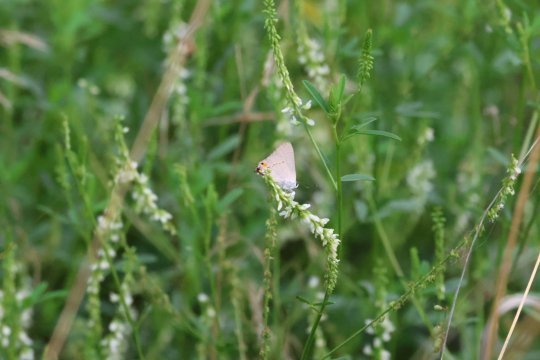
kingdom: Animalia
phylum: Arthropoda
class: Insecta
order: Lepidoptera
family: Lycaenidae
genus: Strymon
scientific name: Strymon melinus
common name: Gray Hairstreak
